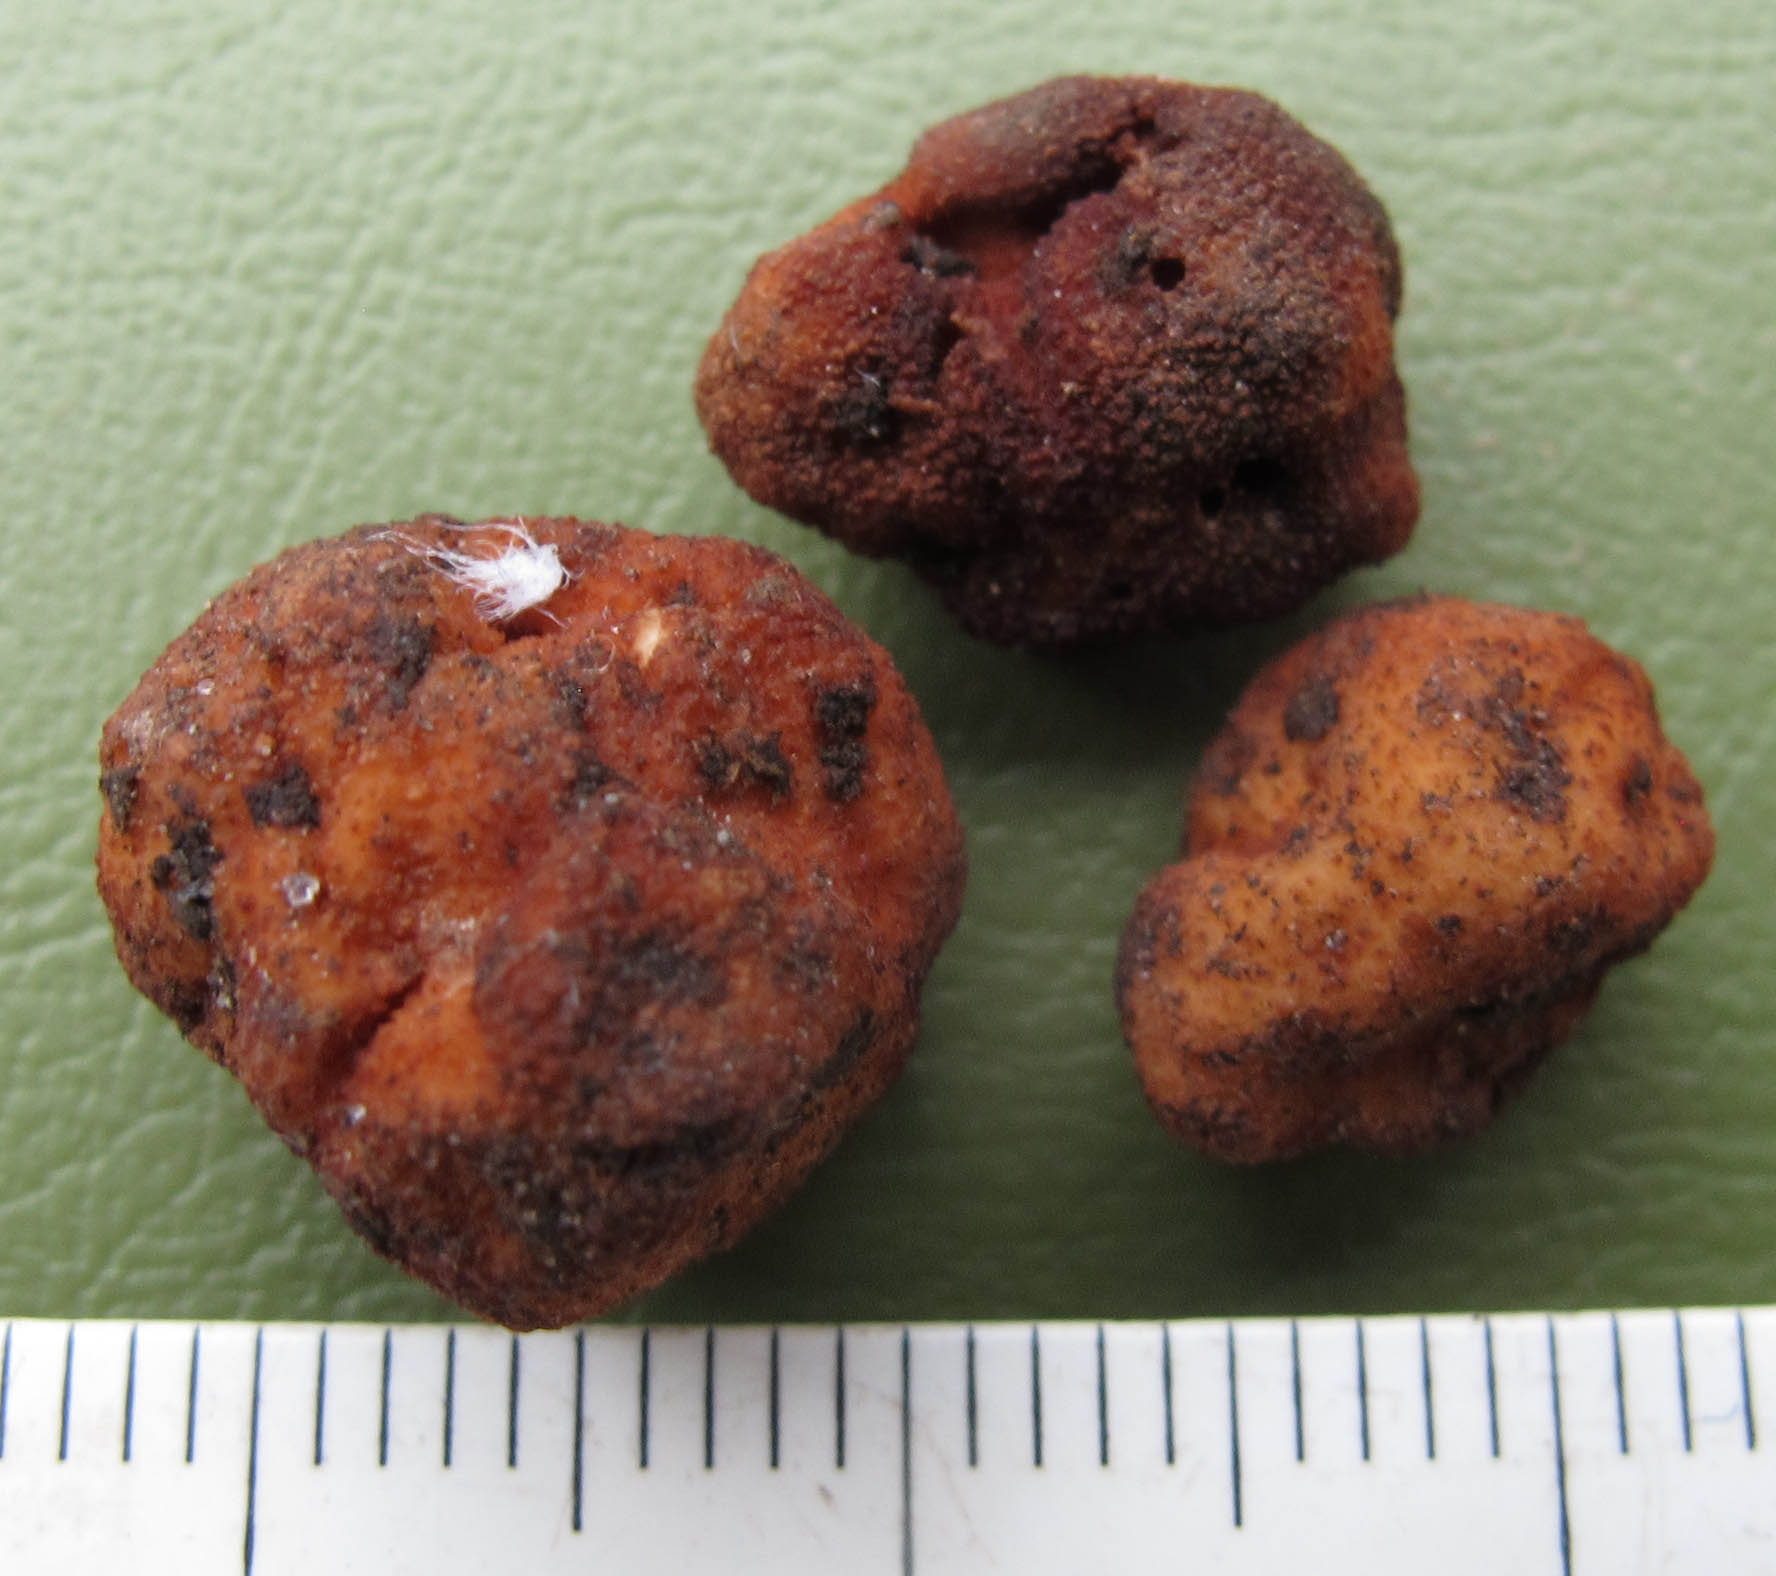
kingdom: Fungi
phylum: Ascomycota
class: Pezizomycetes
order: Pezizales
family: Tuberaceae
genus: Tuber
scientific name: Tuber rufum
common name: rødbrun trøffel
